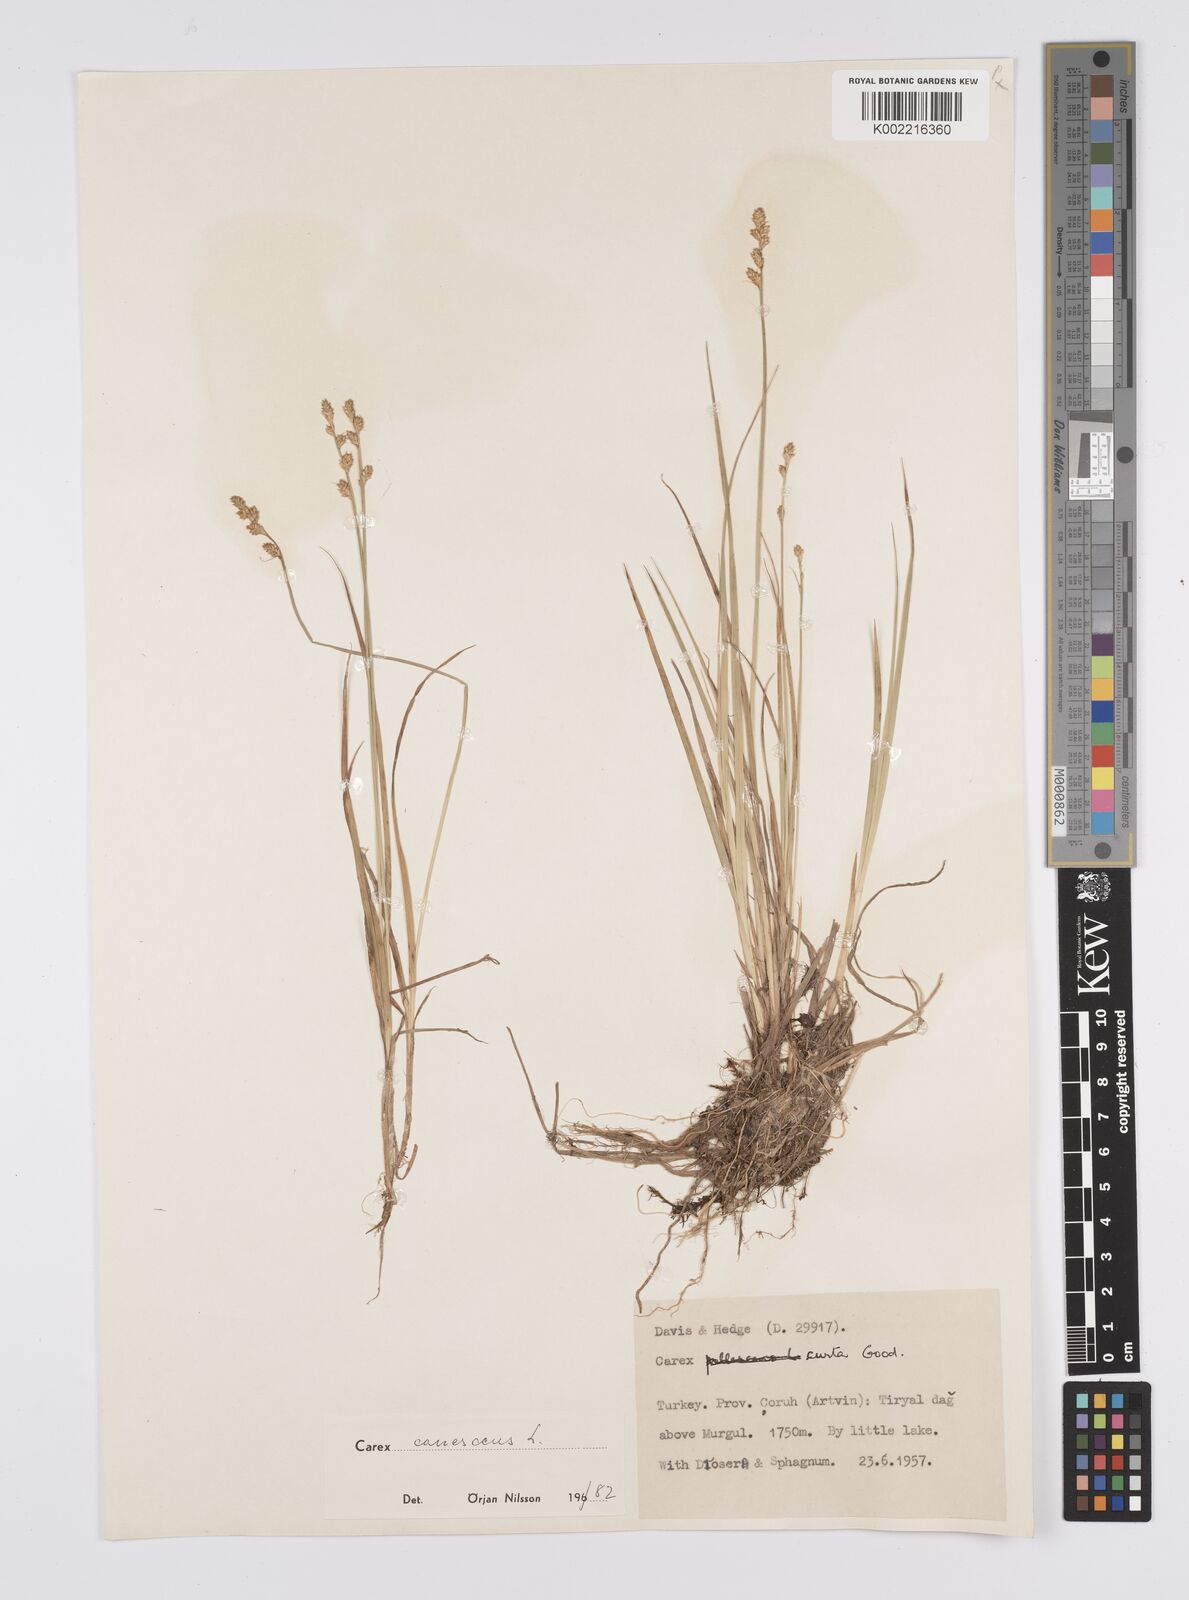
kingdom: Plantae
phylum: Tracheophyta
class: Liliopsida
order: Poales
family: Cyperaceae
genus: Carex
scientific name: Carex canescens
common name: White sedge
